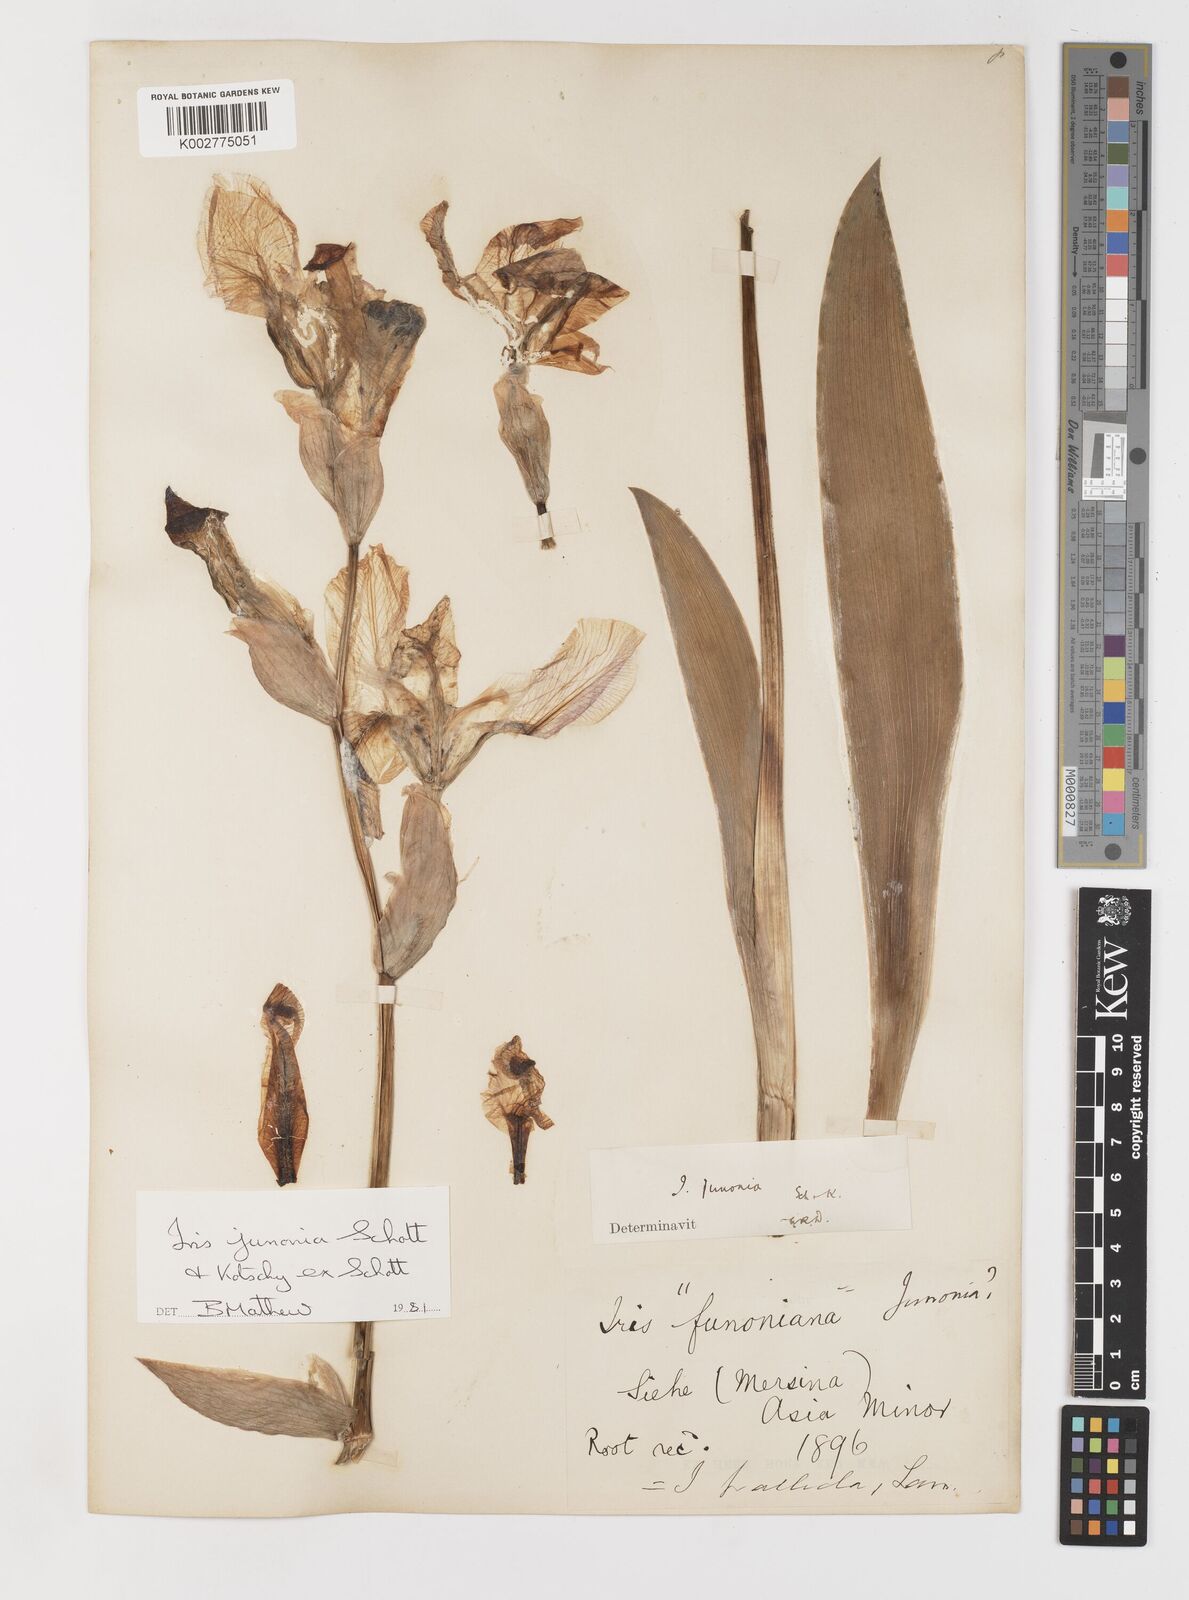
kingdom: Plantae
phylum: Tracheophyta
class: Liliopsida
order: Asparagales
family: Iridaceae
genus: Iris
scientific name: Iris junonia
